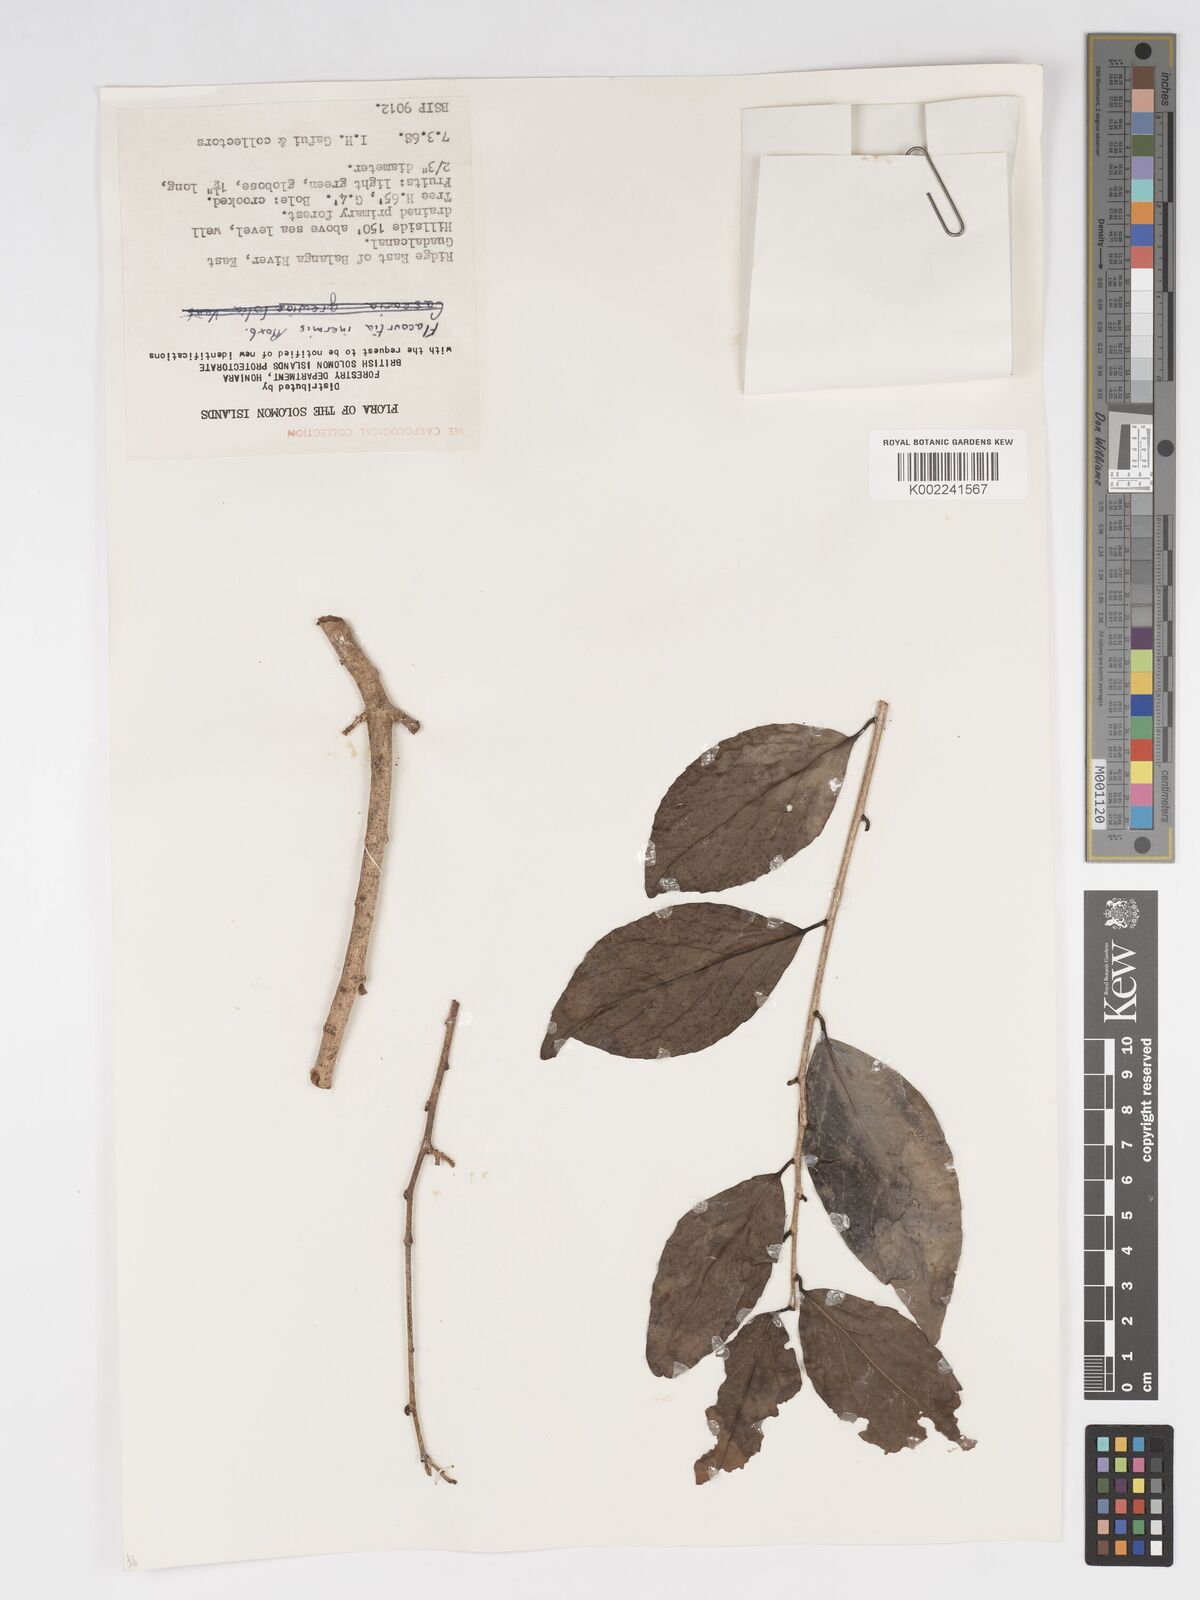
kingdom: Plantae
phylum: Tracheophyta
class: Magnoliopsida
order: Malpighiales
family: Salicaceae
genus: Flacourtia
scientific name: Flacourtia inermis
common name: Plum-of-martinique
